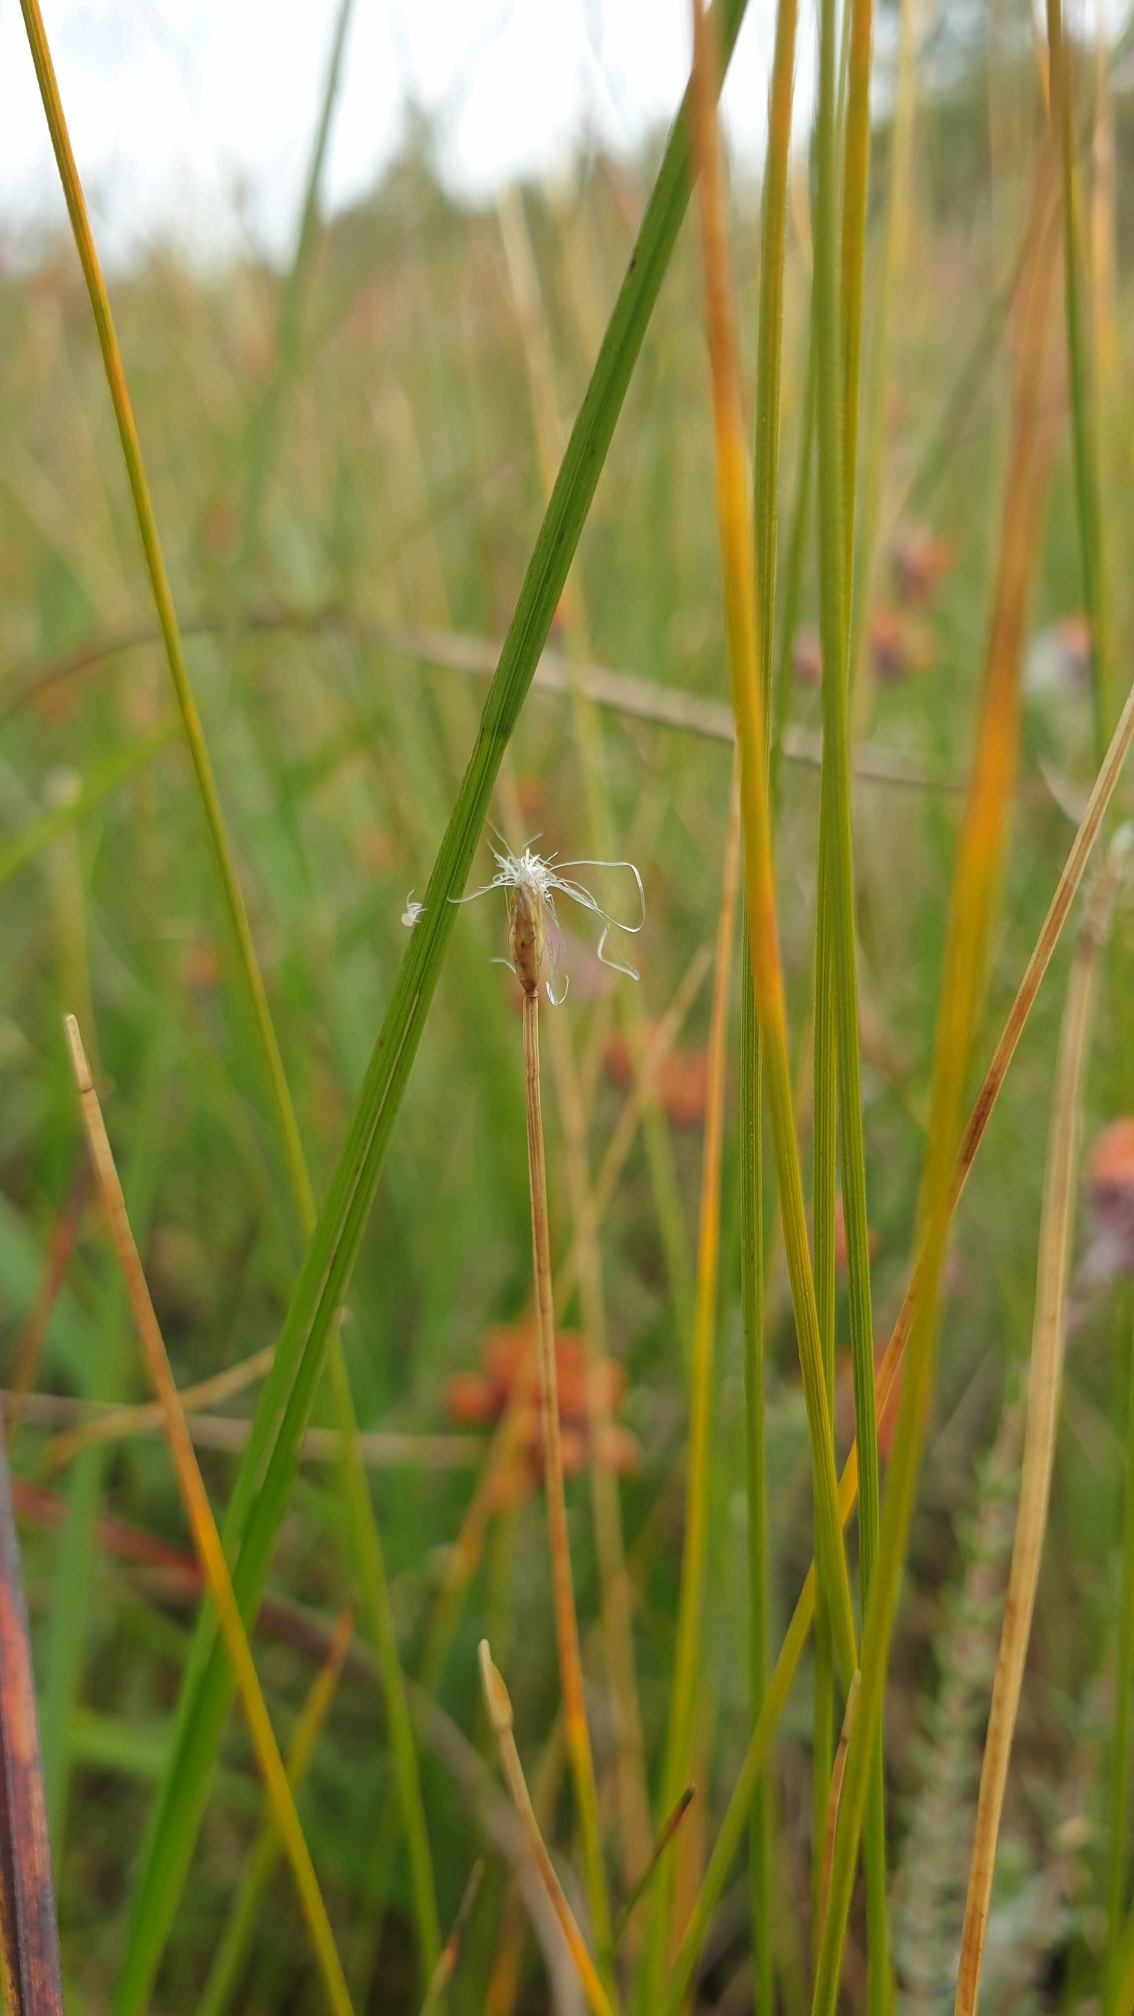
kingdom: Plantae
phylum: Tracheophyta
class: Liliopsida
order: Poales
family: Cyperaceae
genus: Trichophorum
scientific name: Trichophorum alpinum
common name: Liden kæruld
